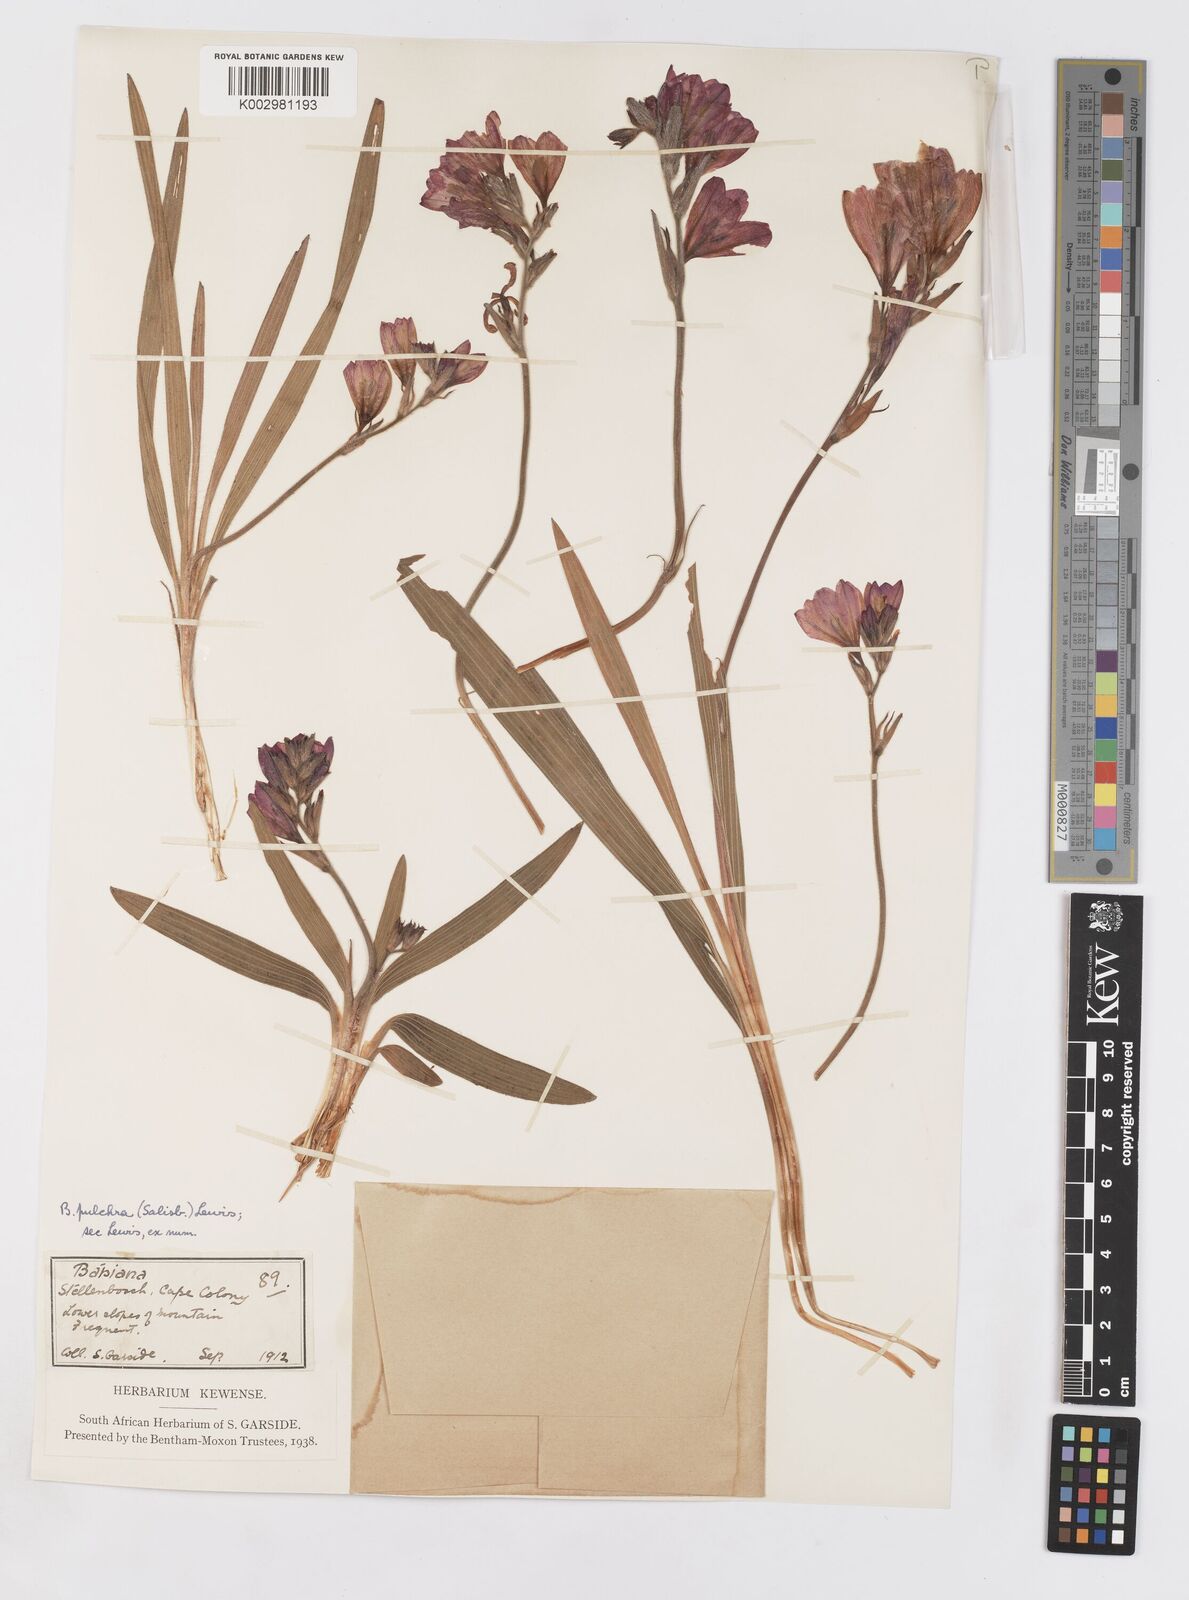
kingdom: Plantae
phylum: Tracheophyta
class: Liliopsida
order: Asparagales
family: Iridaceae
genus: Babiana
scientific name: Babiana angustifolia
